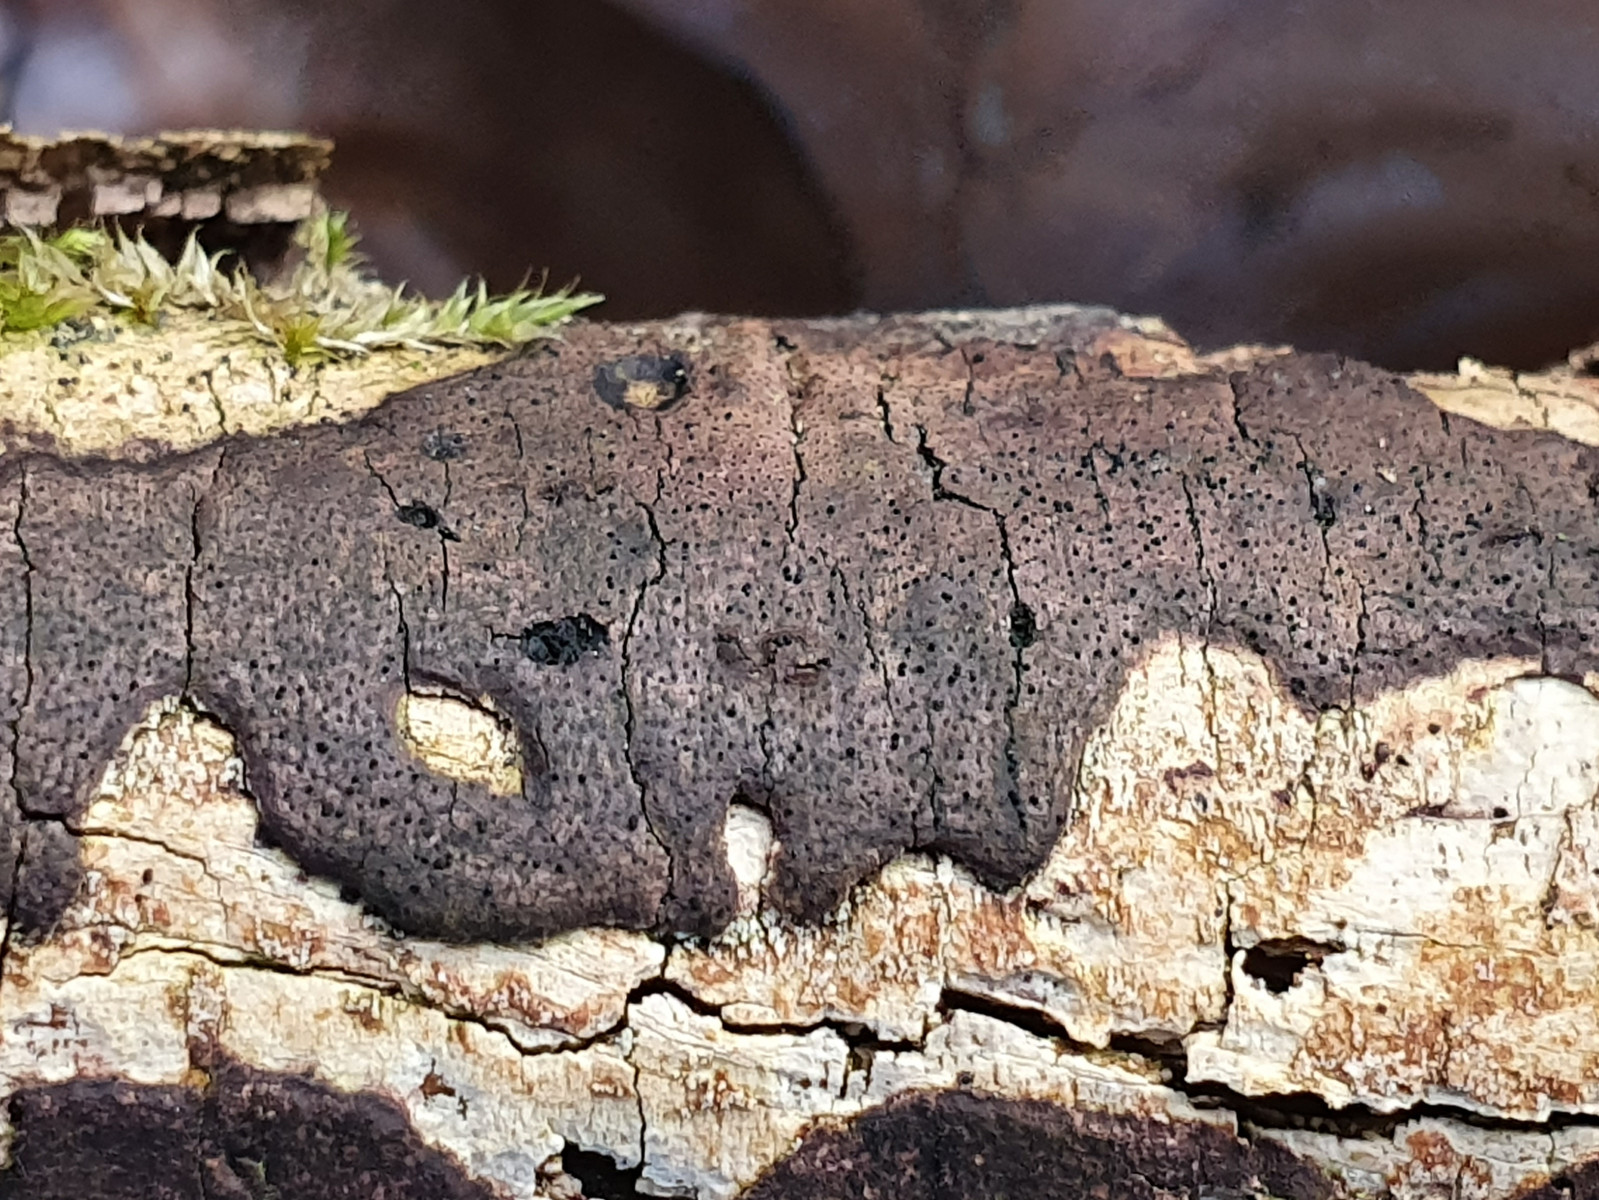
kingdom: Fungi
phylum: Ascomycota
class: Sordariomycetes
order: Xylariales
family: Diatrypaceae
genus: Diatrype
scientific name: Diatrype decorticata
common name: barksprænger-kulskorpe
